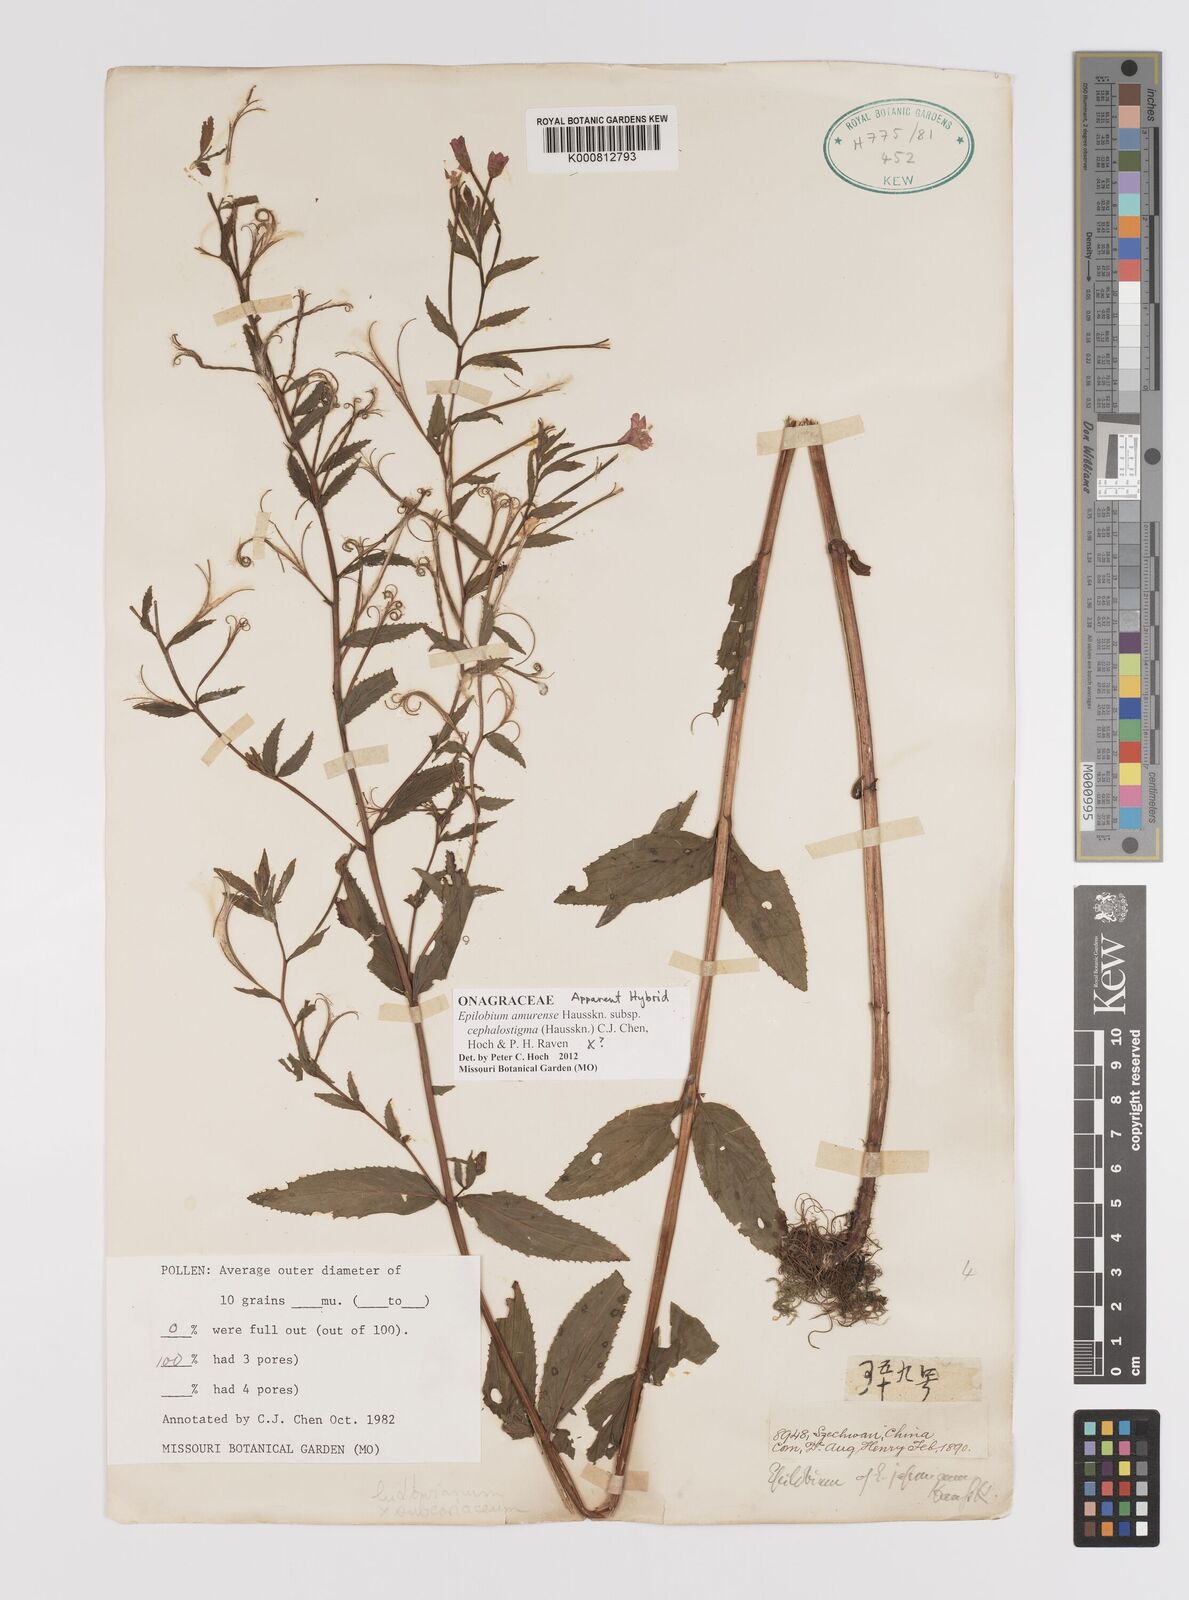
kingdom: Plantae
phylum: Tracheophyta
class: Magnoliopsida
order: Myrtales
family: Onagraceae
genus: Epilobium
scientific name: Epilobium amurense
